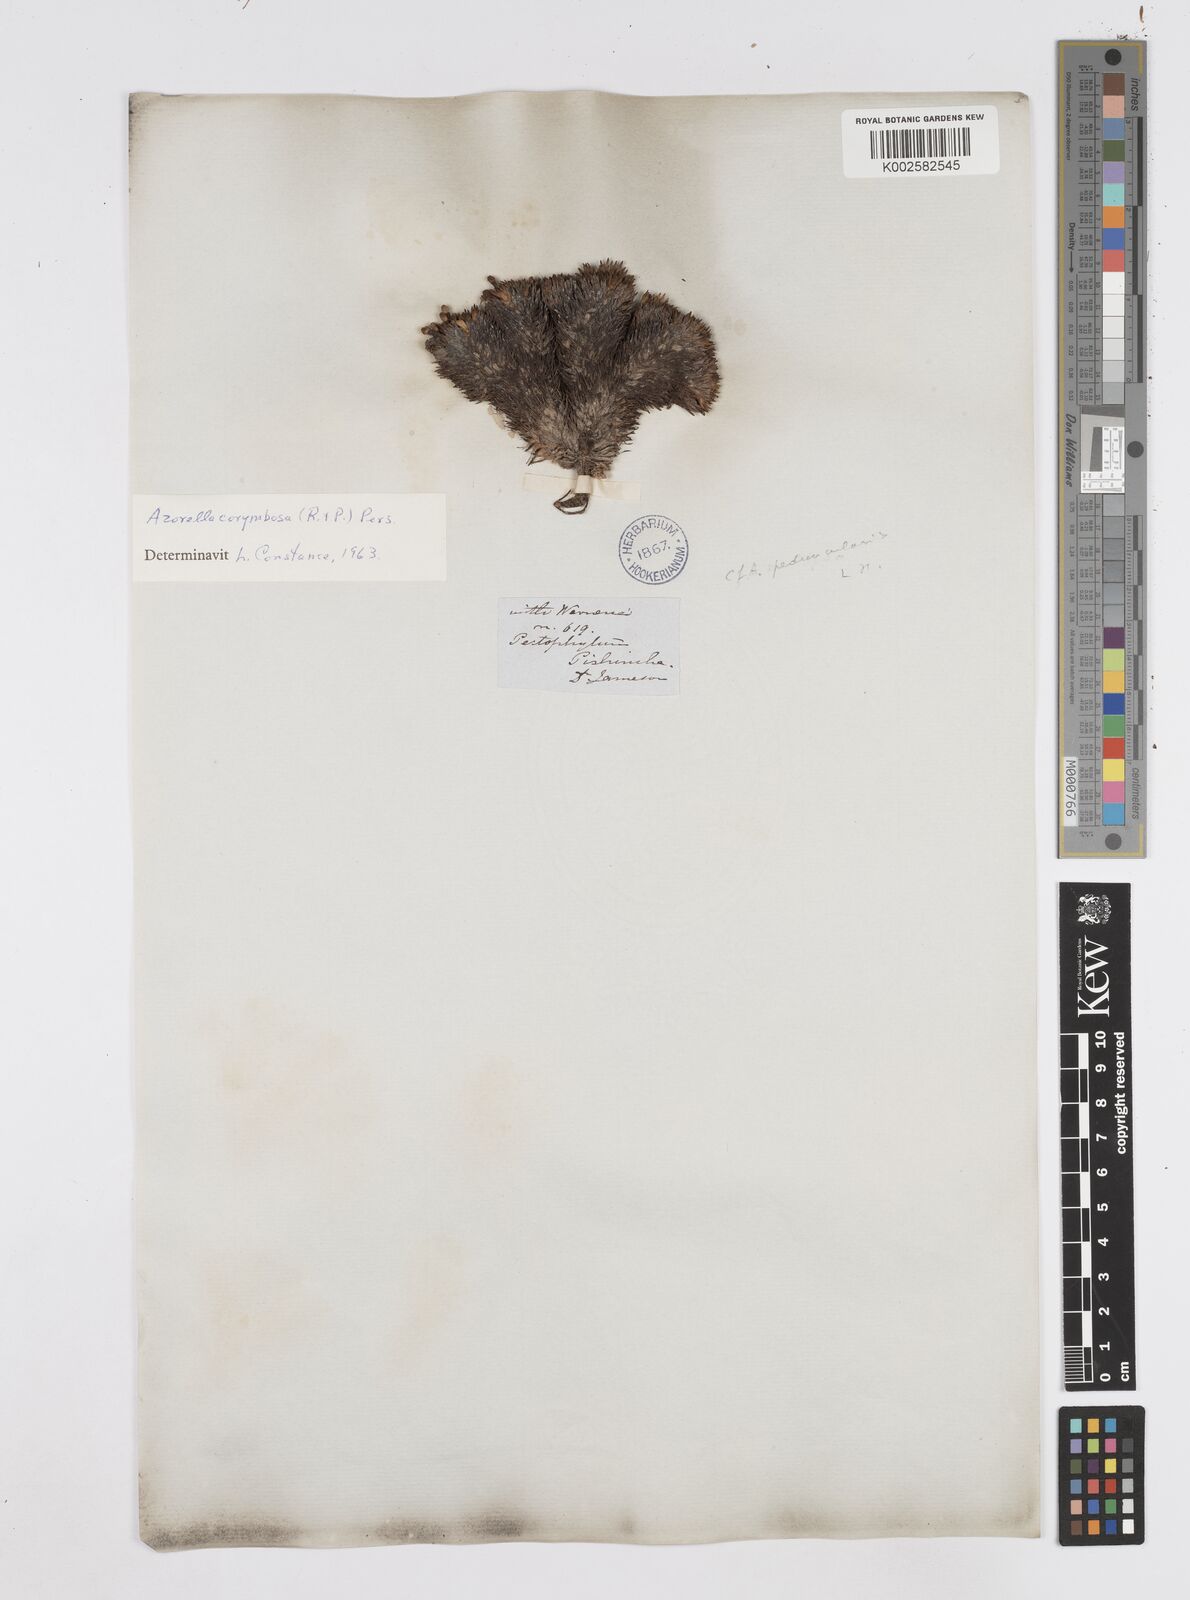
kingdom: Plantae
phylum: Tracheophyta
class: Magnoliopsida
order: Apiales
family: Apiaceae
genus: Azorella
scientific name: Azorella pulvinata
